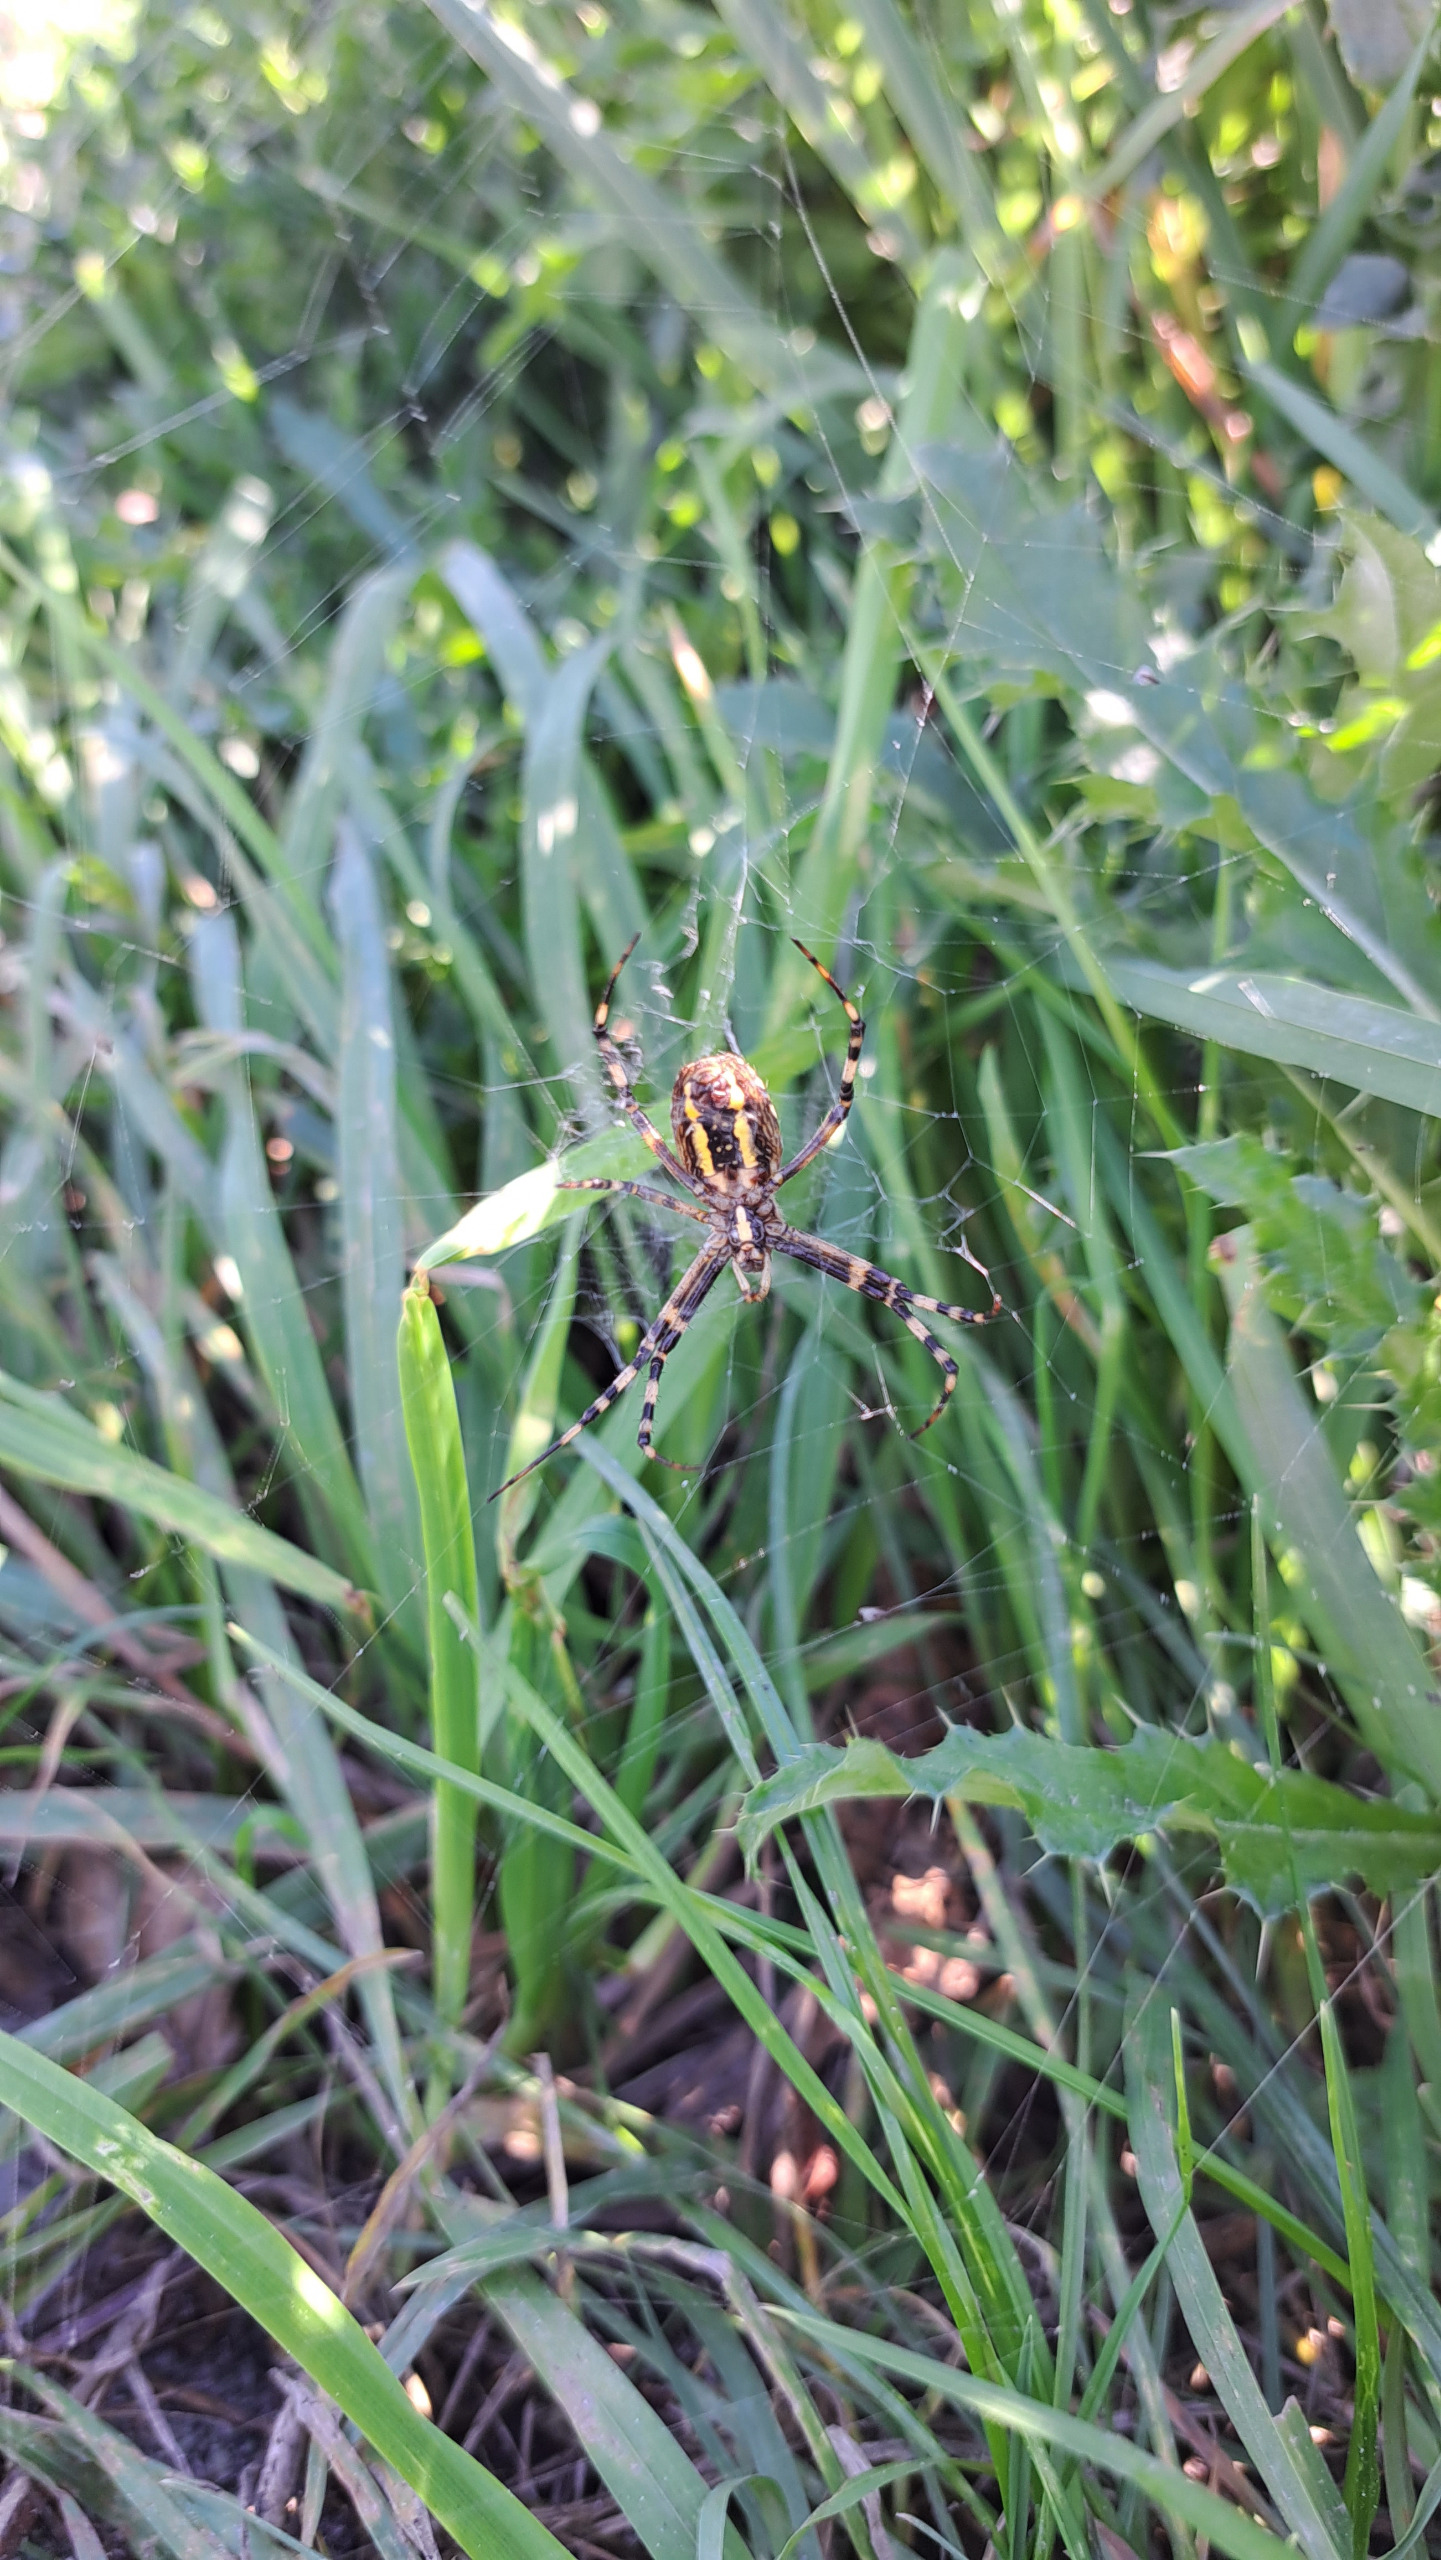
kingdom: Animalia
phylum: Arthropoda
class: Arachnida
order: Araneae
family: Araneidae
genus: Argiope
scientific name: Argiope bruennichi
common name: Hvepseedderkop
